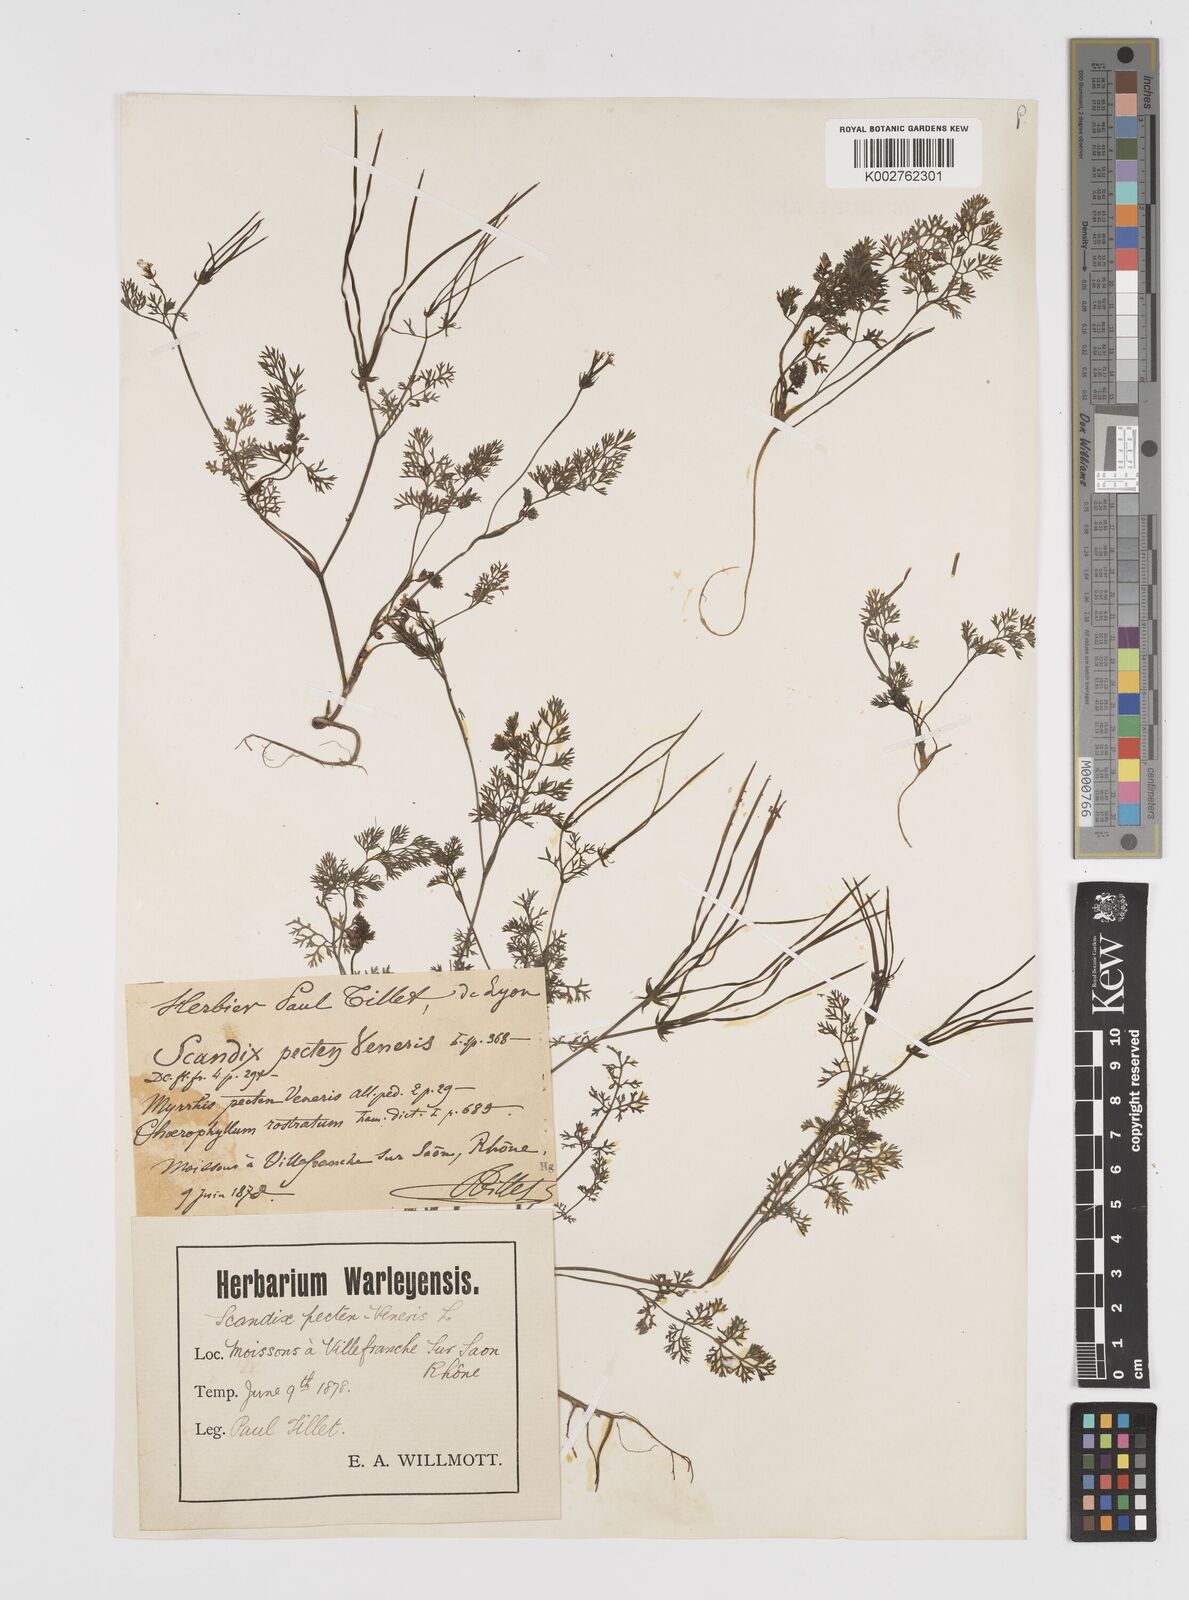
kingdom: Plantae
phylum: Tracheophyta
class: Magnoliopsida
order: Apiales
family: Apiaceae
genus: Scandix
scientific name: Scandix pecten-veneris
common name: Shepherd's-needle
